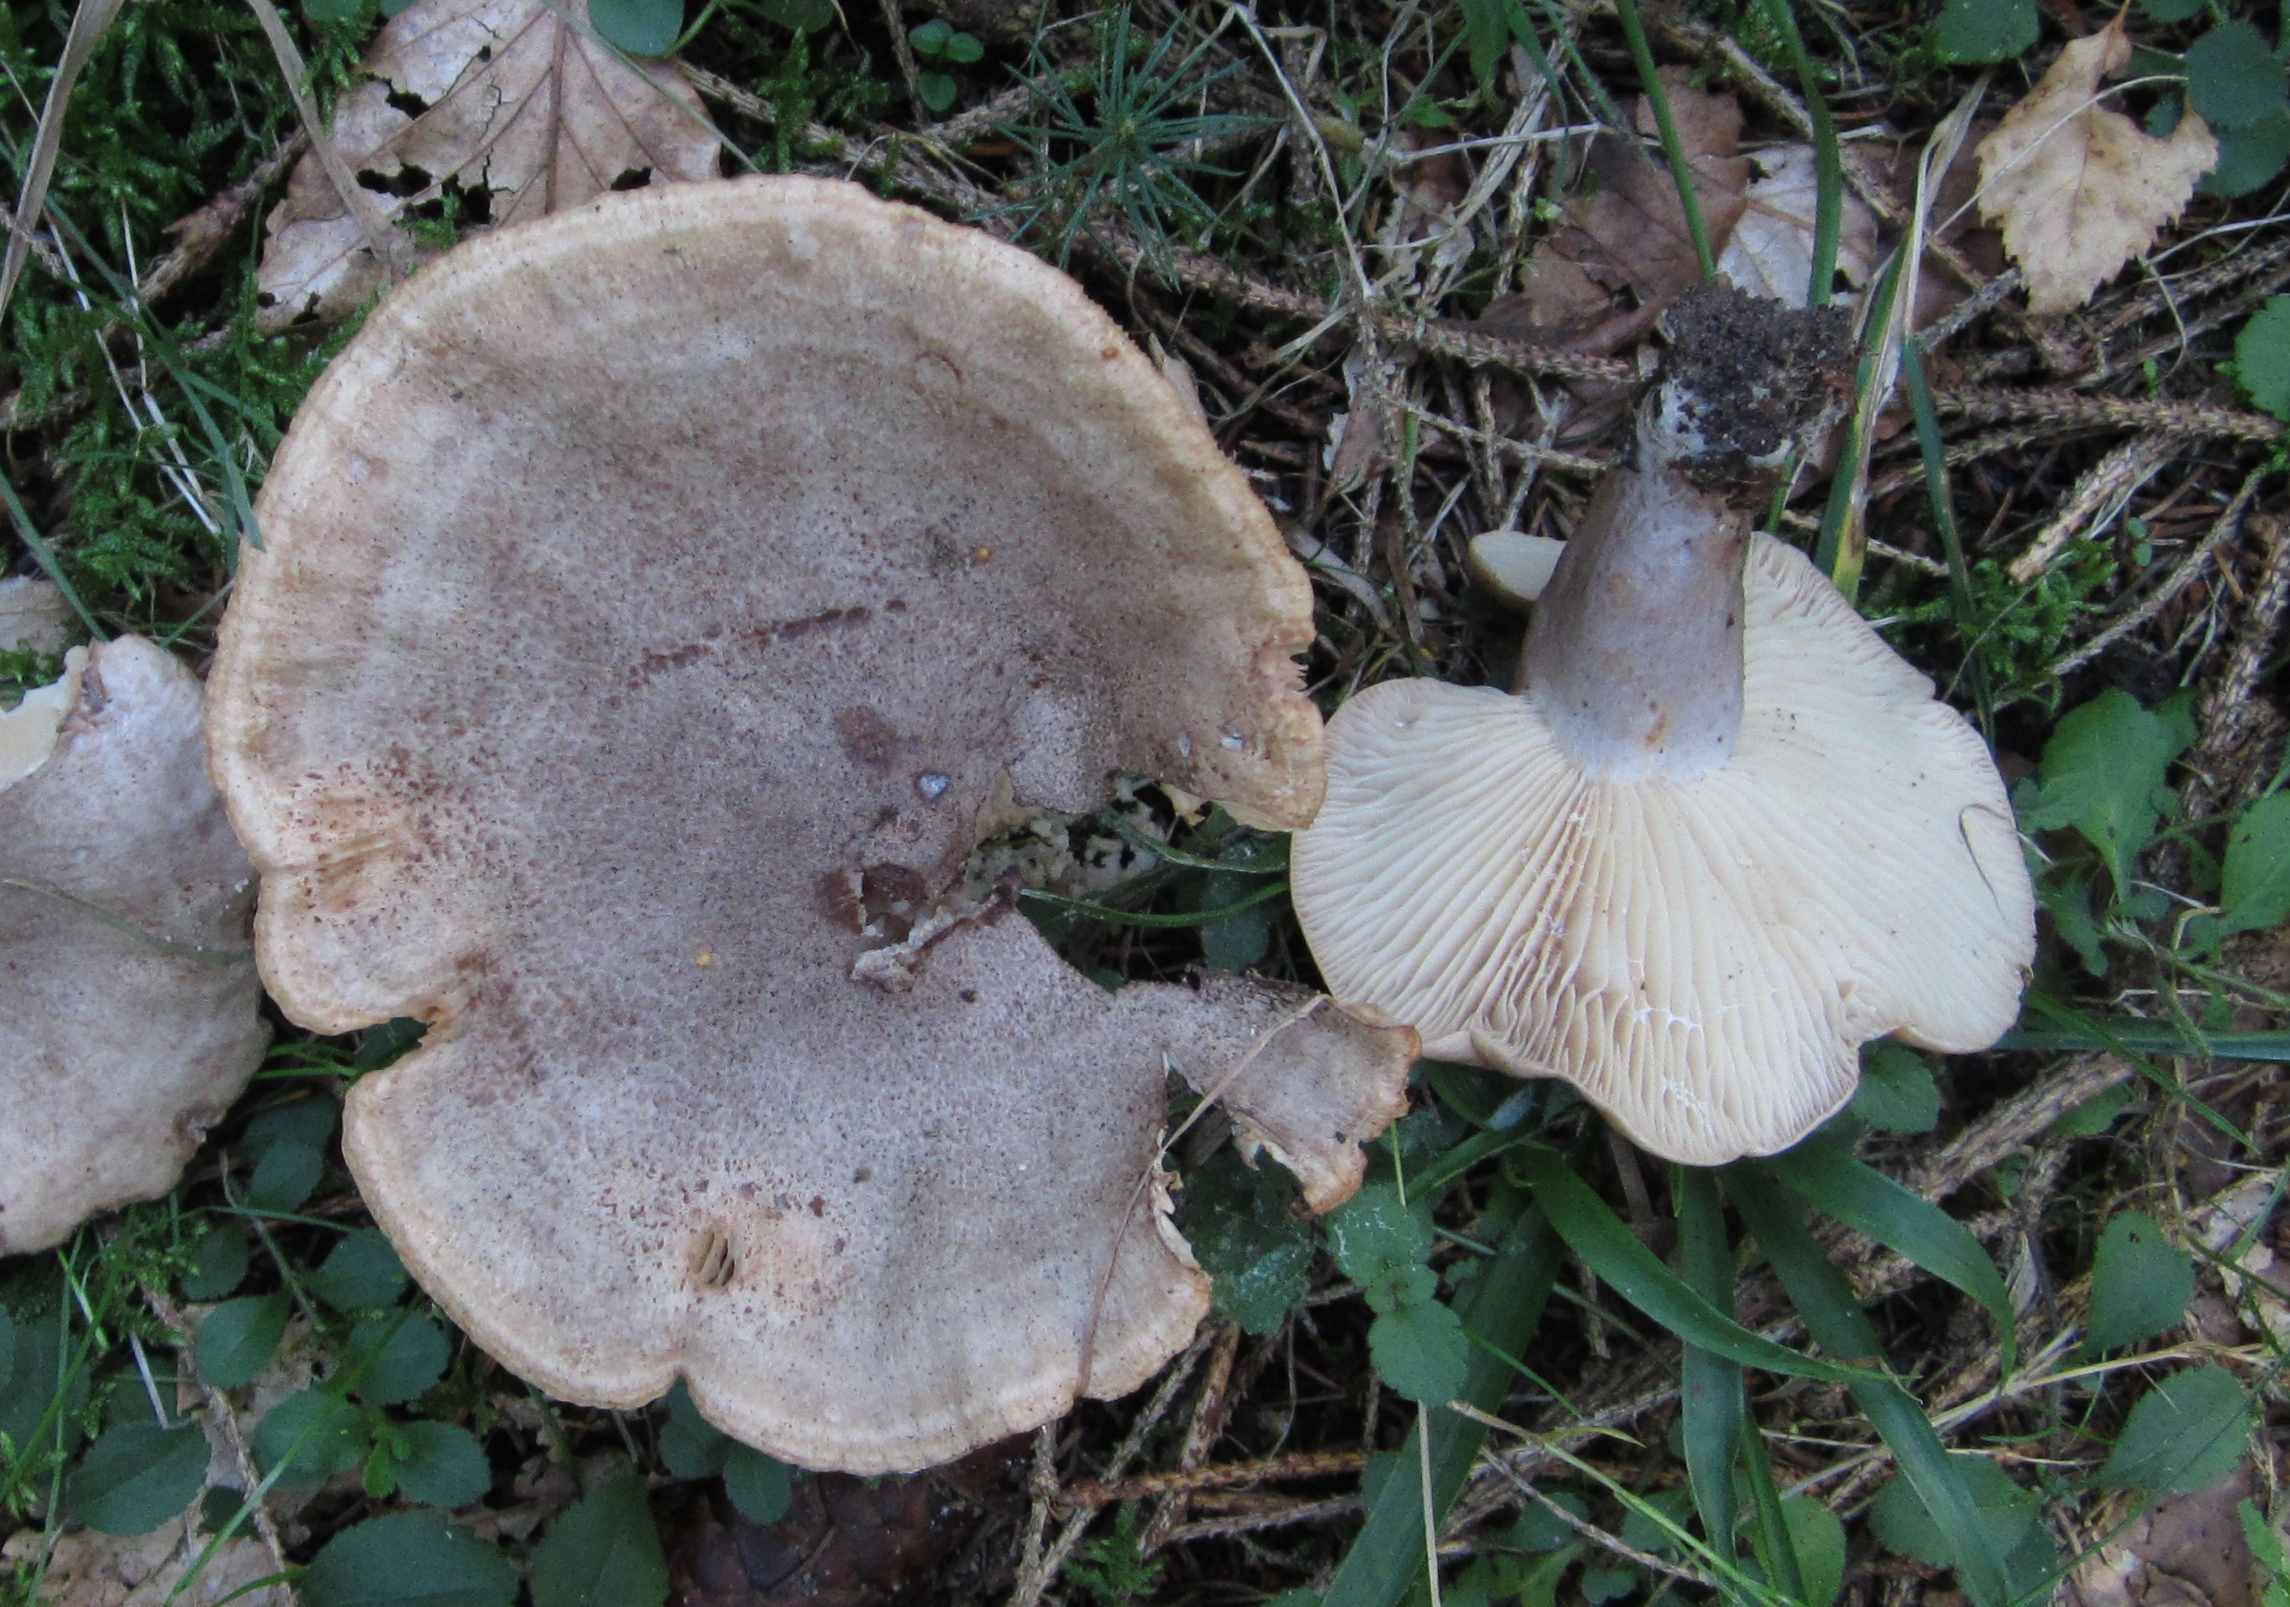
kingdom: Fungi
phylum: Basidiomycota
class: Agaricomycetes
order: Russulales
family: Russulaceae
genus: Lactarius
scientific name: Lactarius flexuosus
